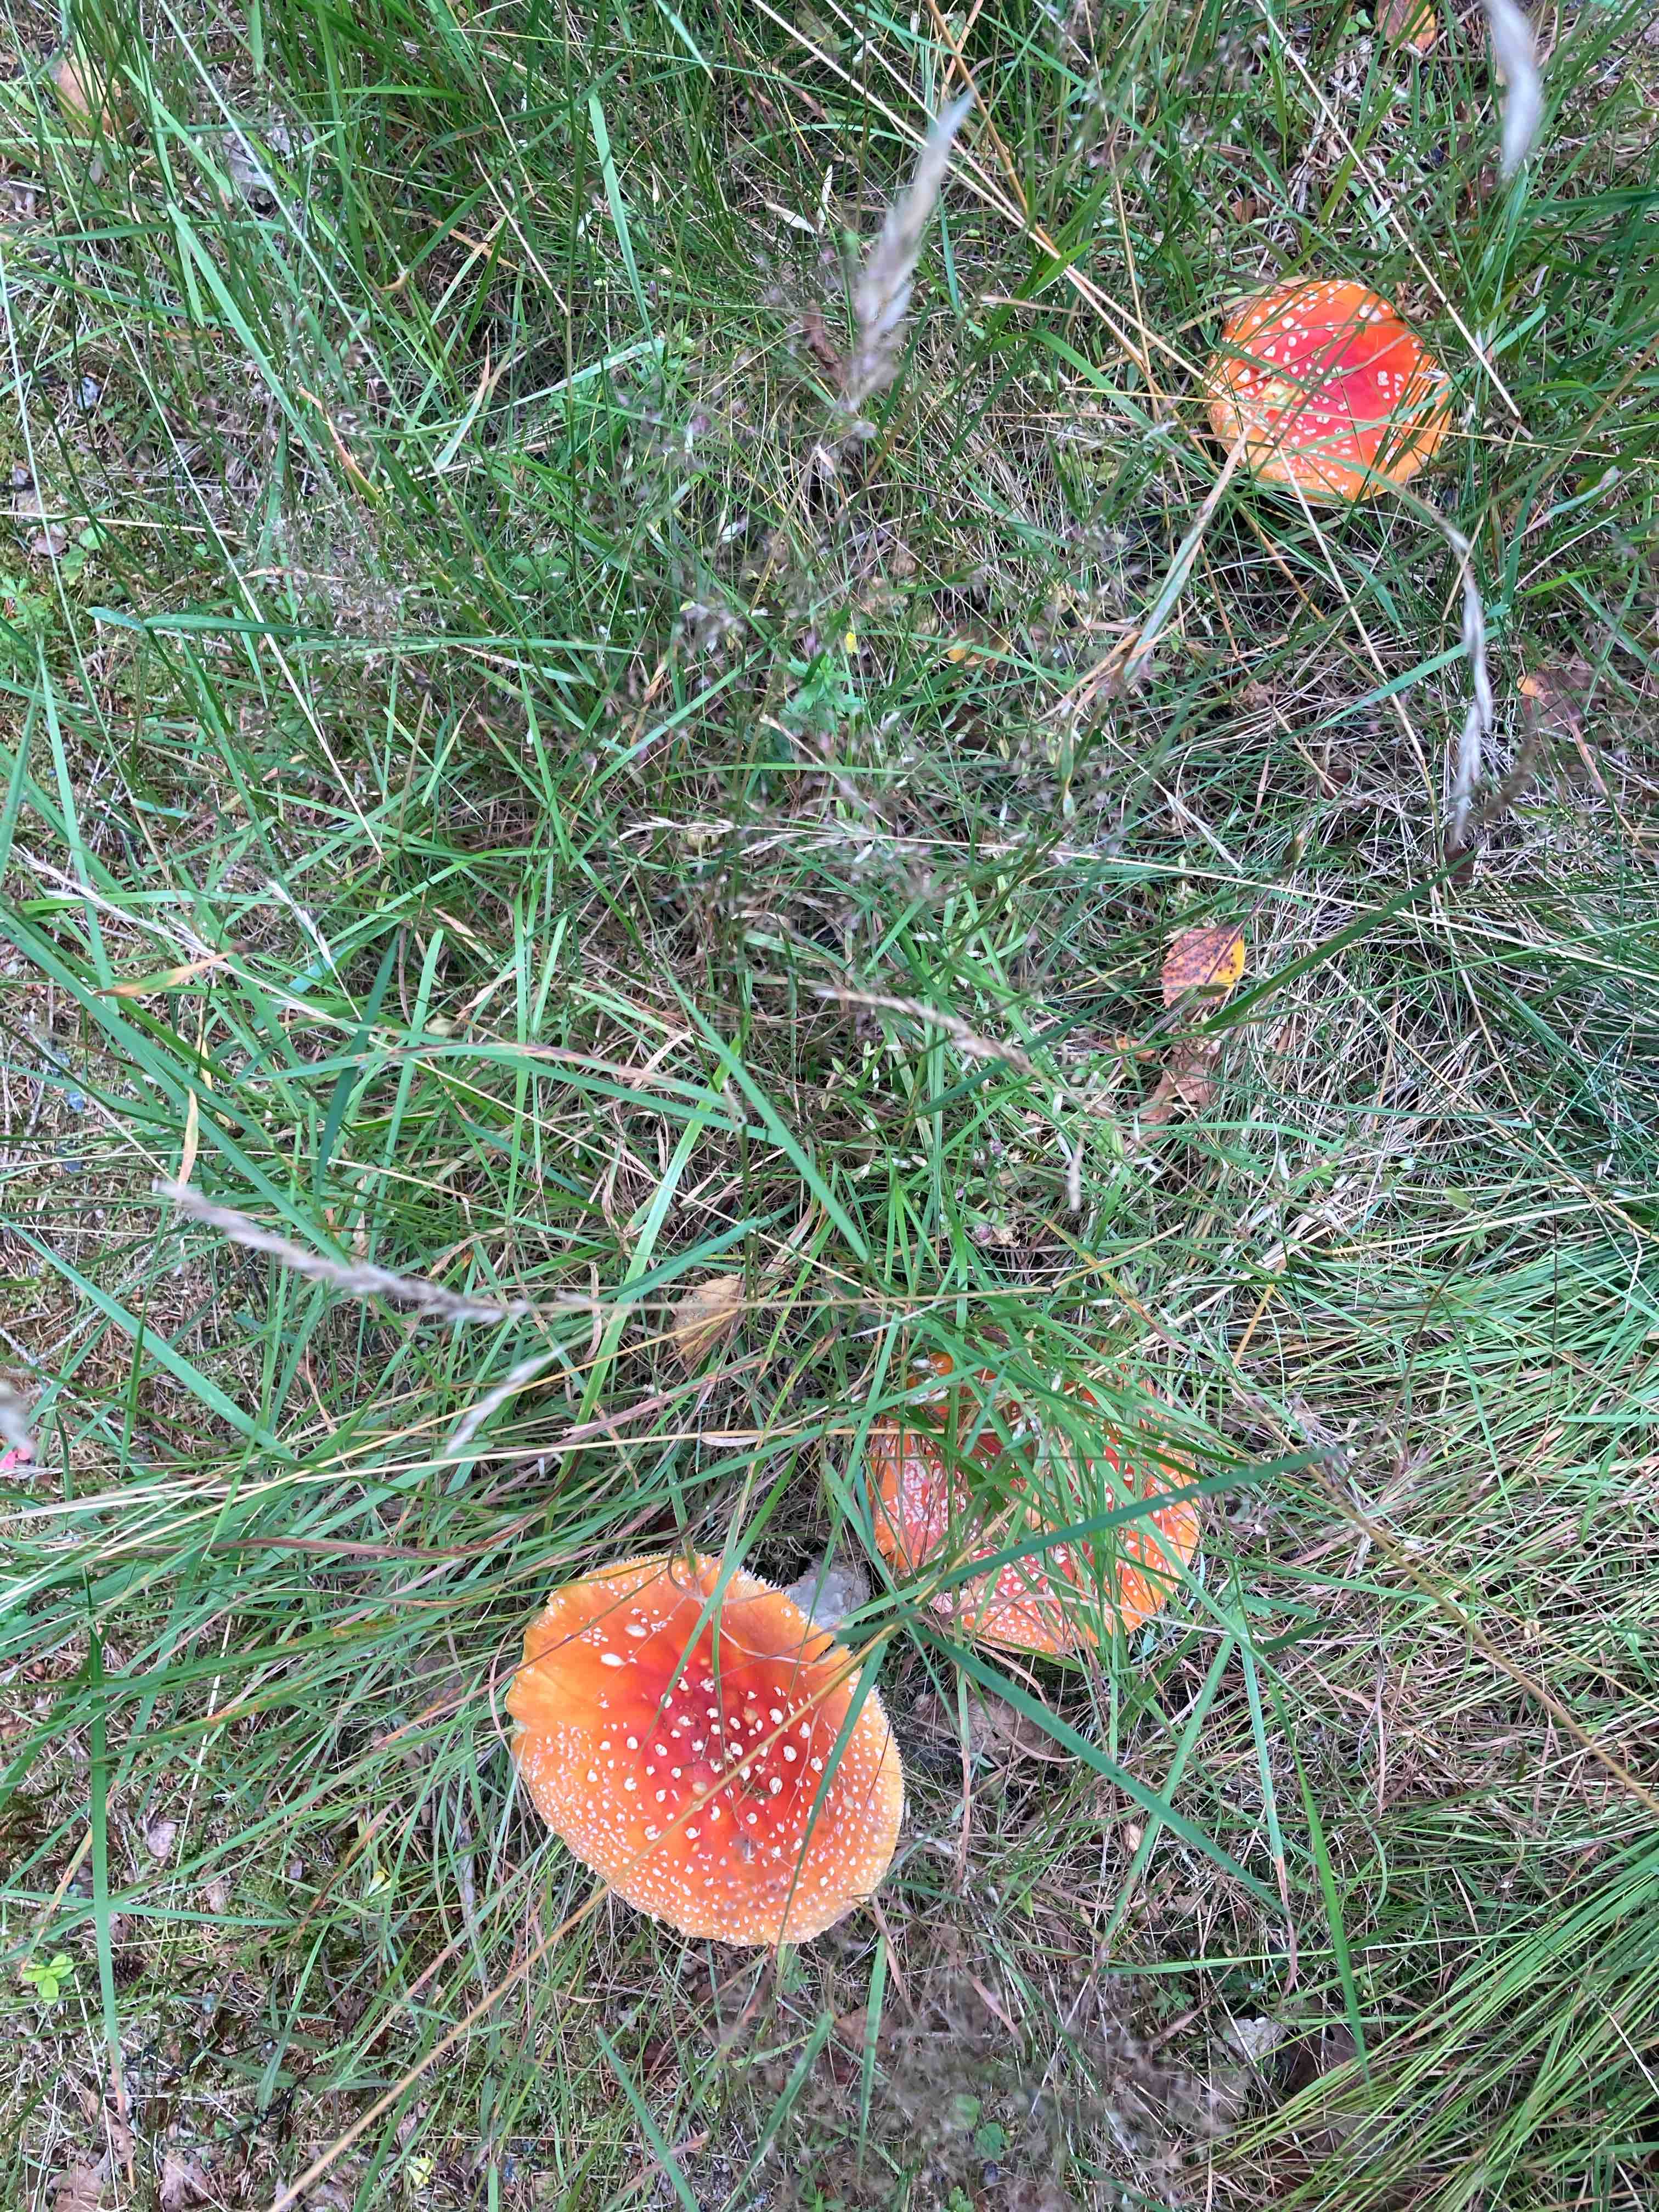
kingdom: Fungi
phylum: Basidiomycota
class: Agaricomycetes
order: Agaricales
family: Amanitaceae
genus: Amanita
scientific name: Amanita muscaria
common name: rød fluesvamp
